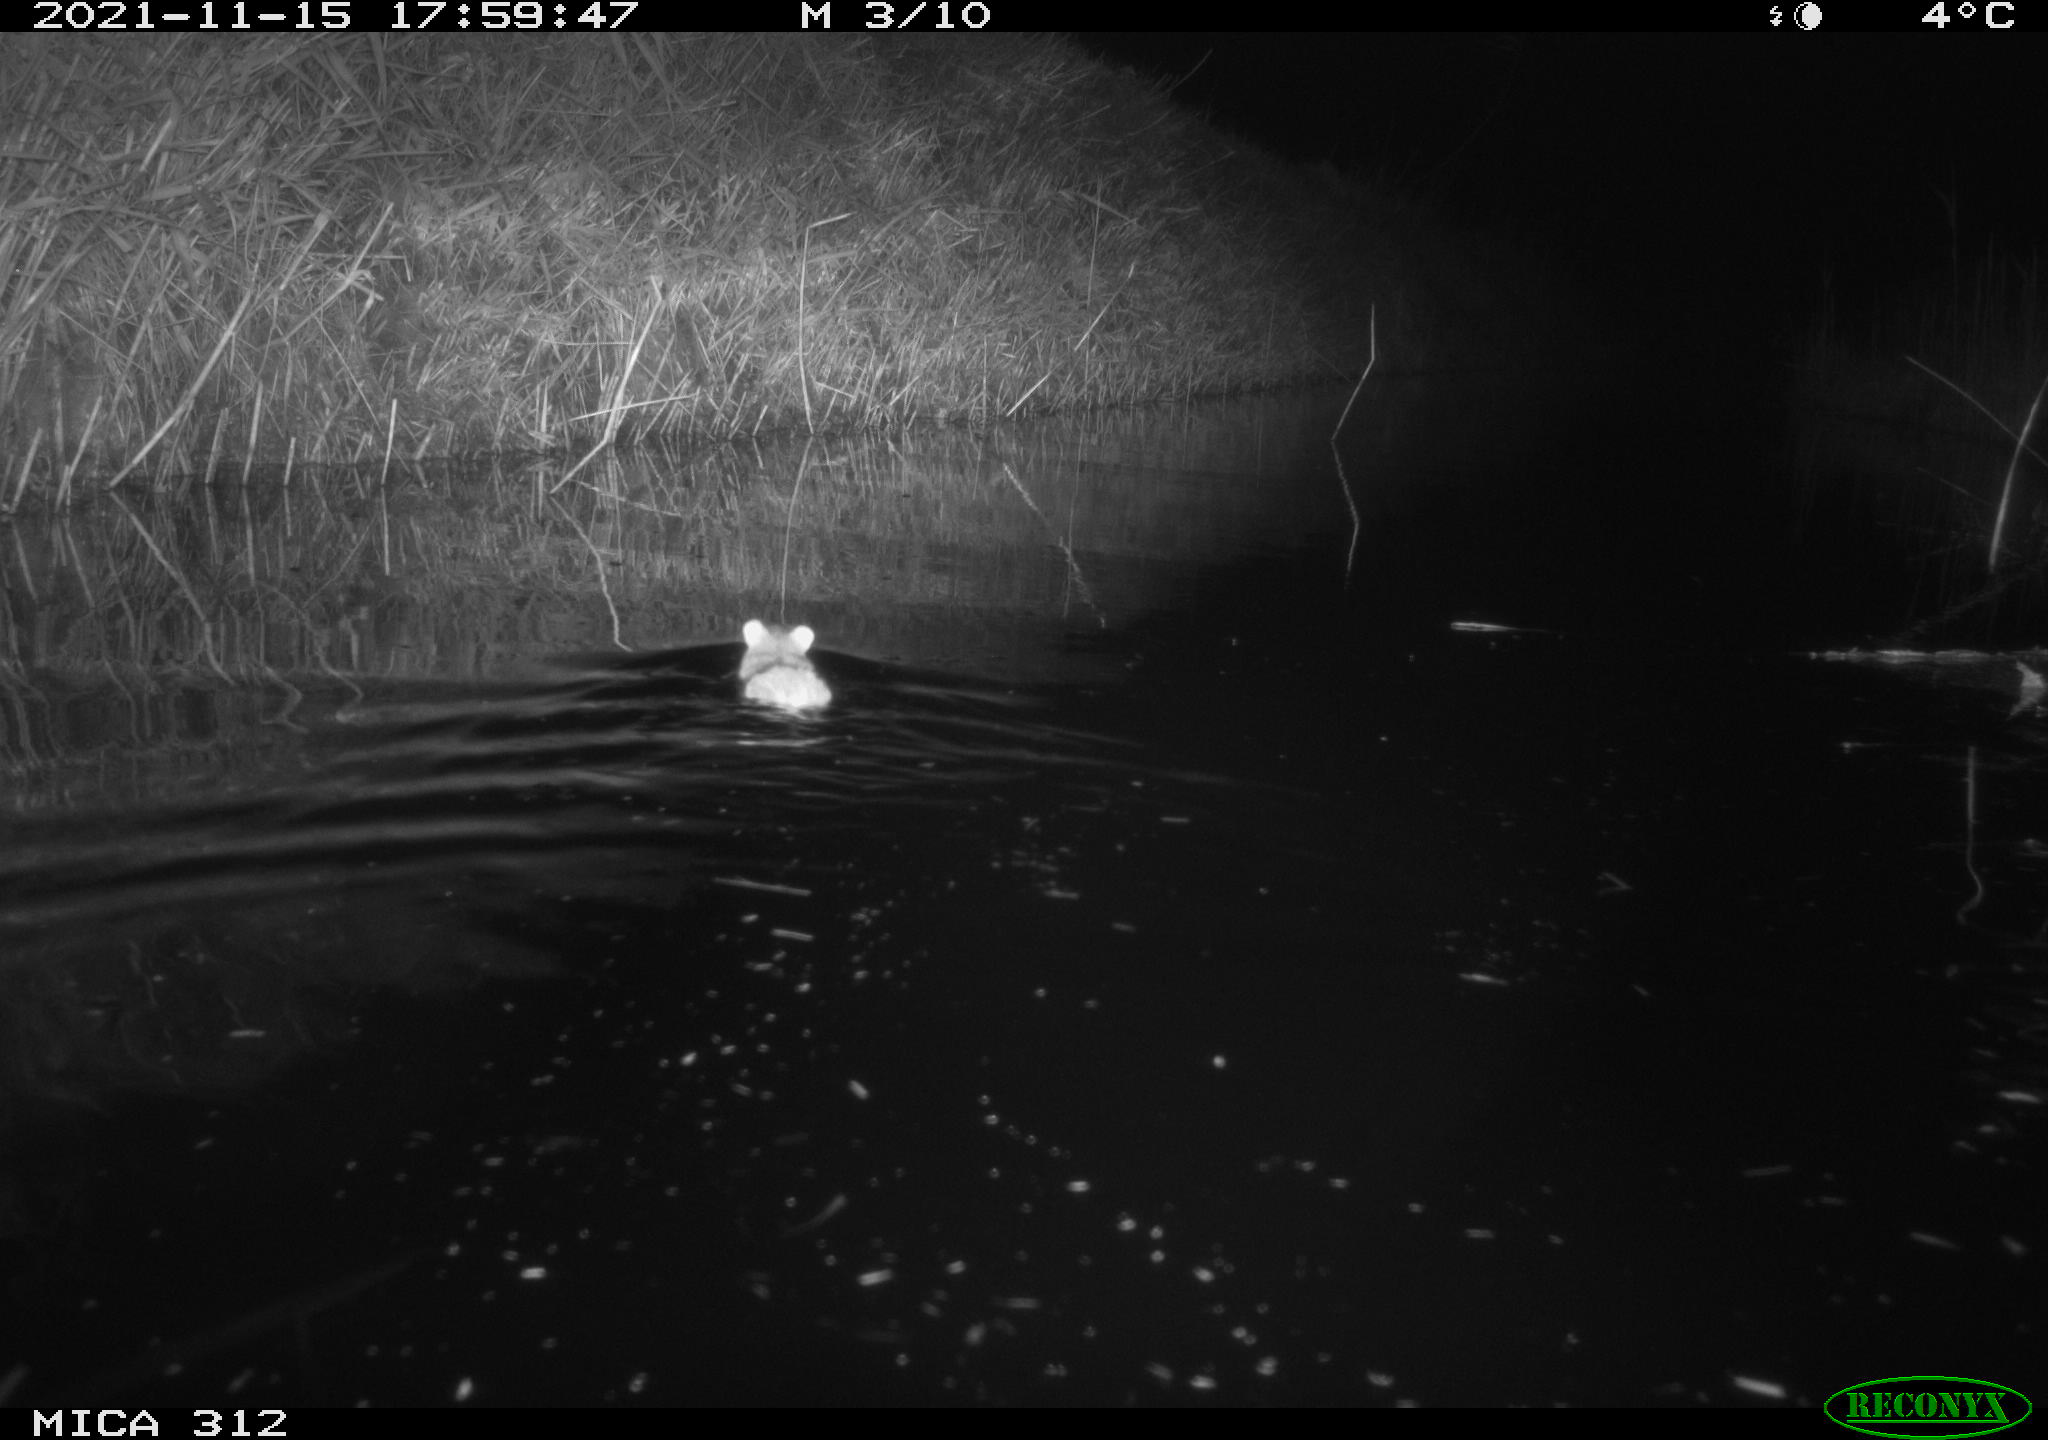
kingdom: Animalia
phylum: Chordata
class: Mammalia
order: Rodentia
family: Muridae
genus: Rattus
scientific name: Rattus norvegicus
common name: Brown rat
